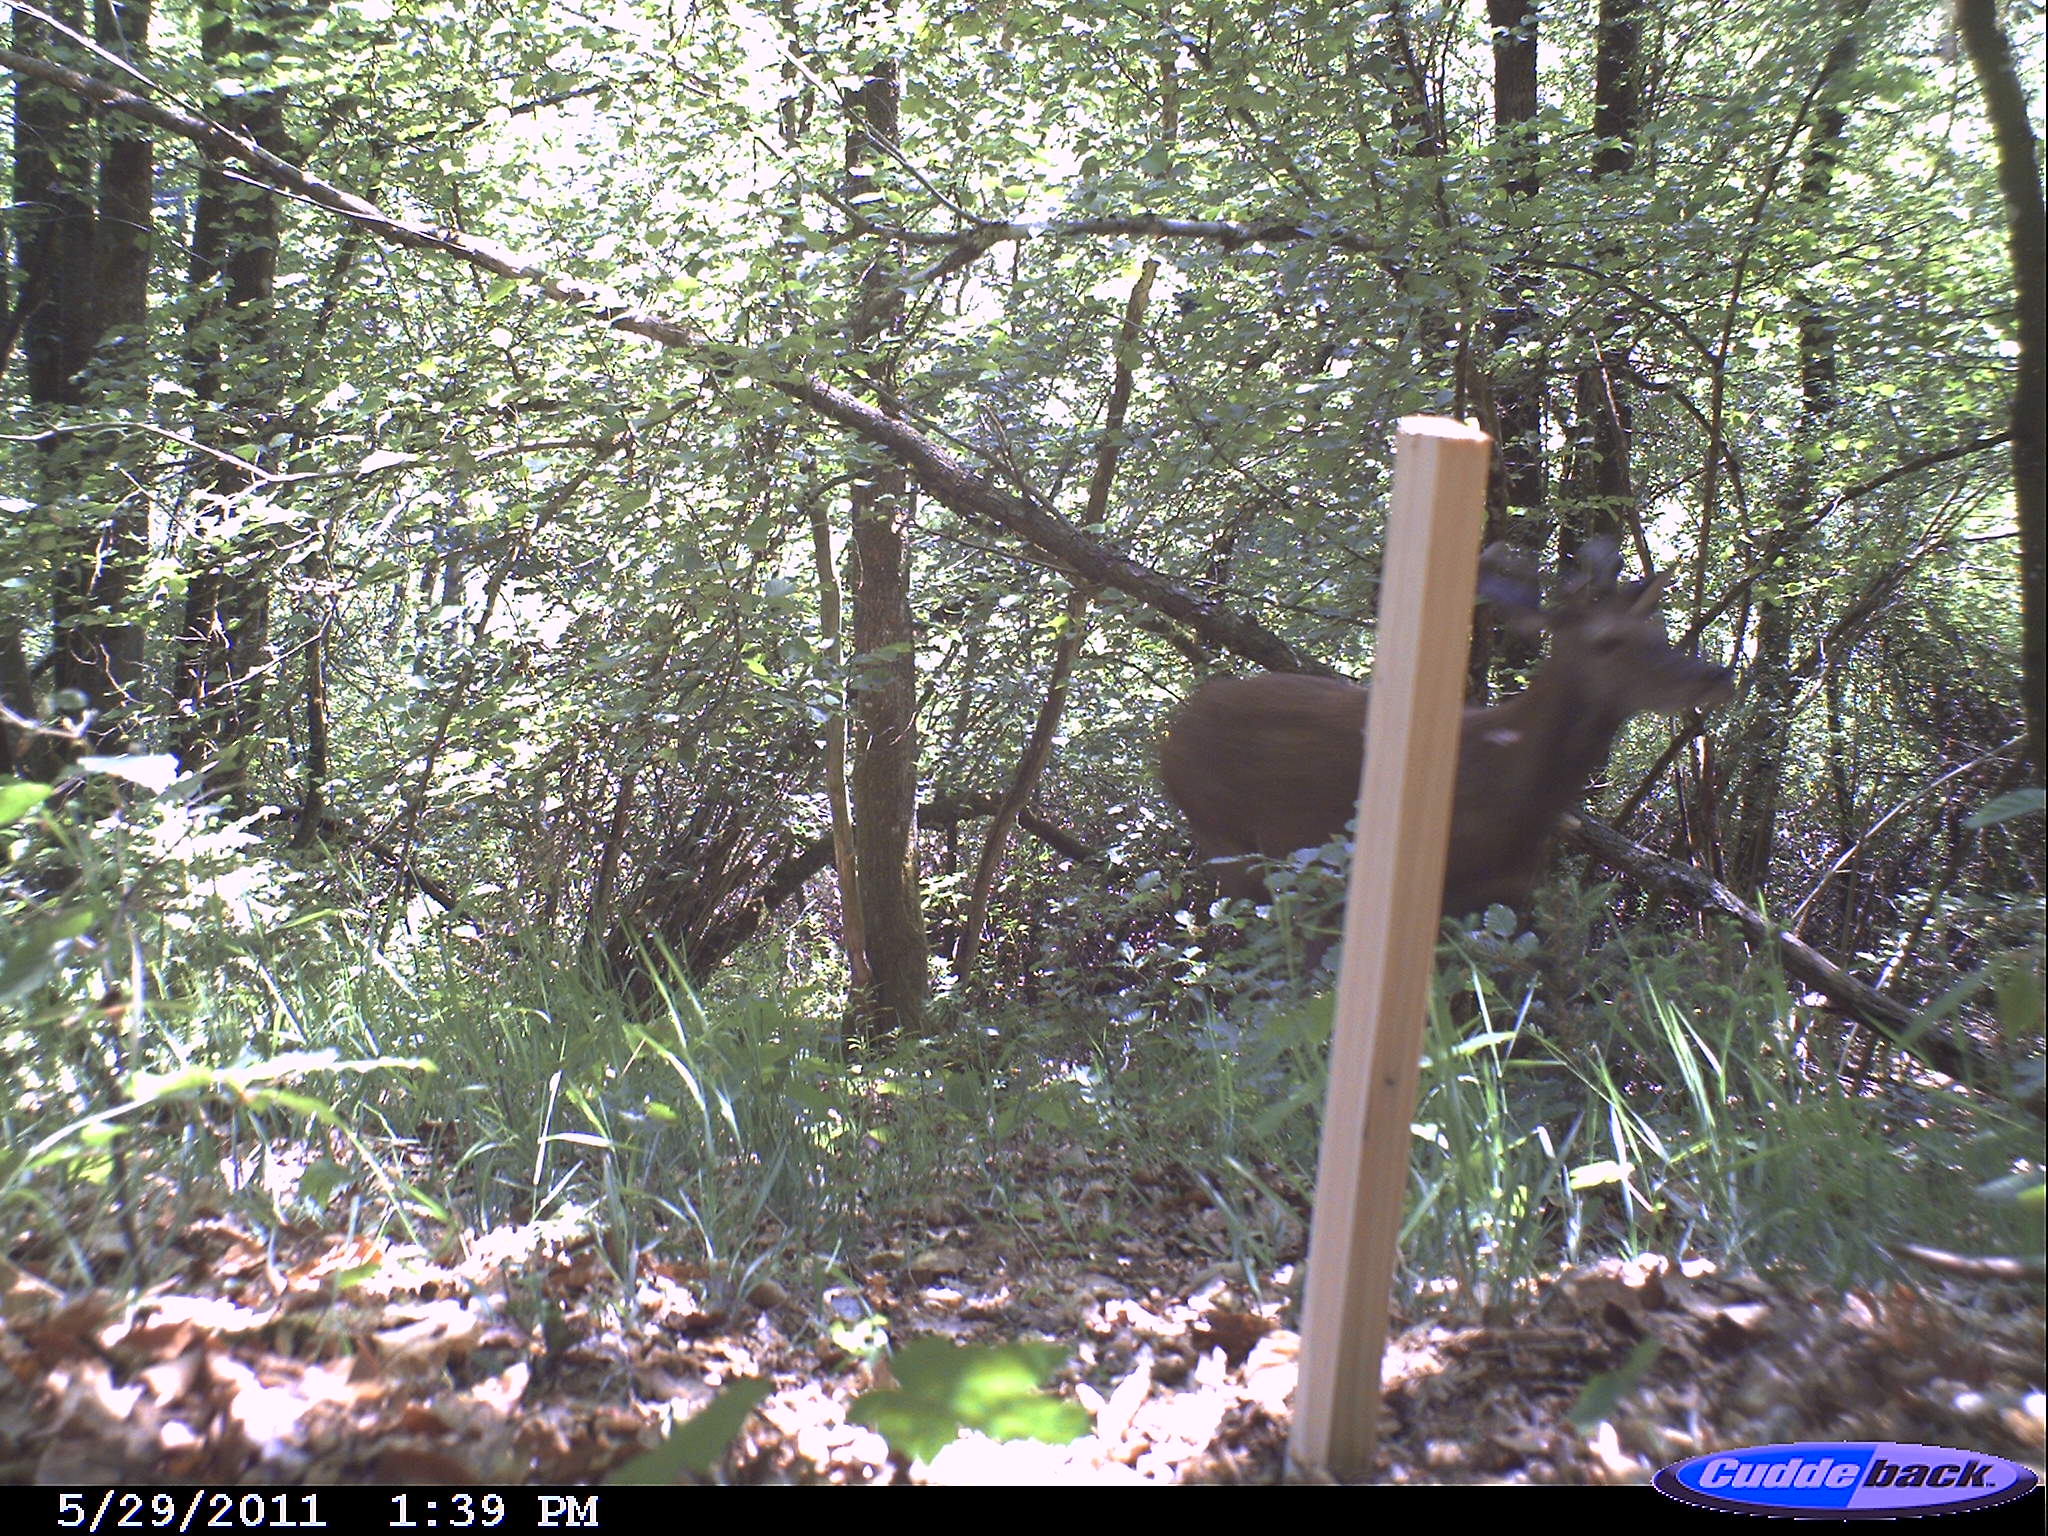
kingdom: Animalia
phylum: Chordata
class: Mammalia
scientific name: Mammalia
